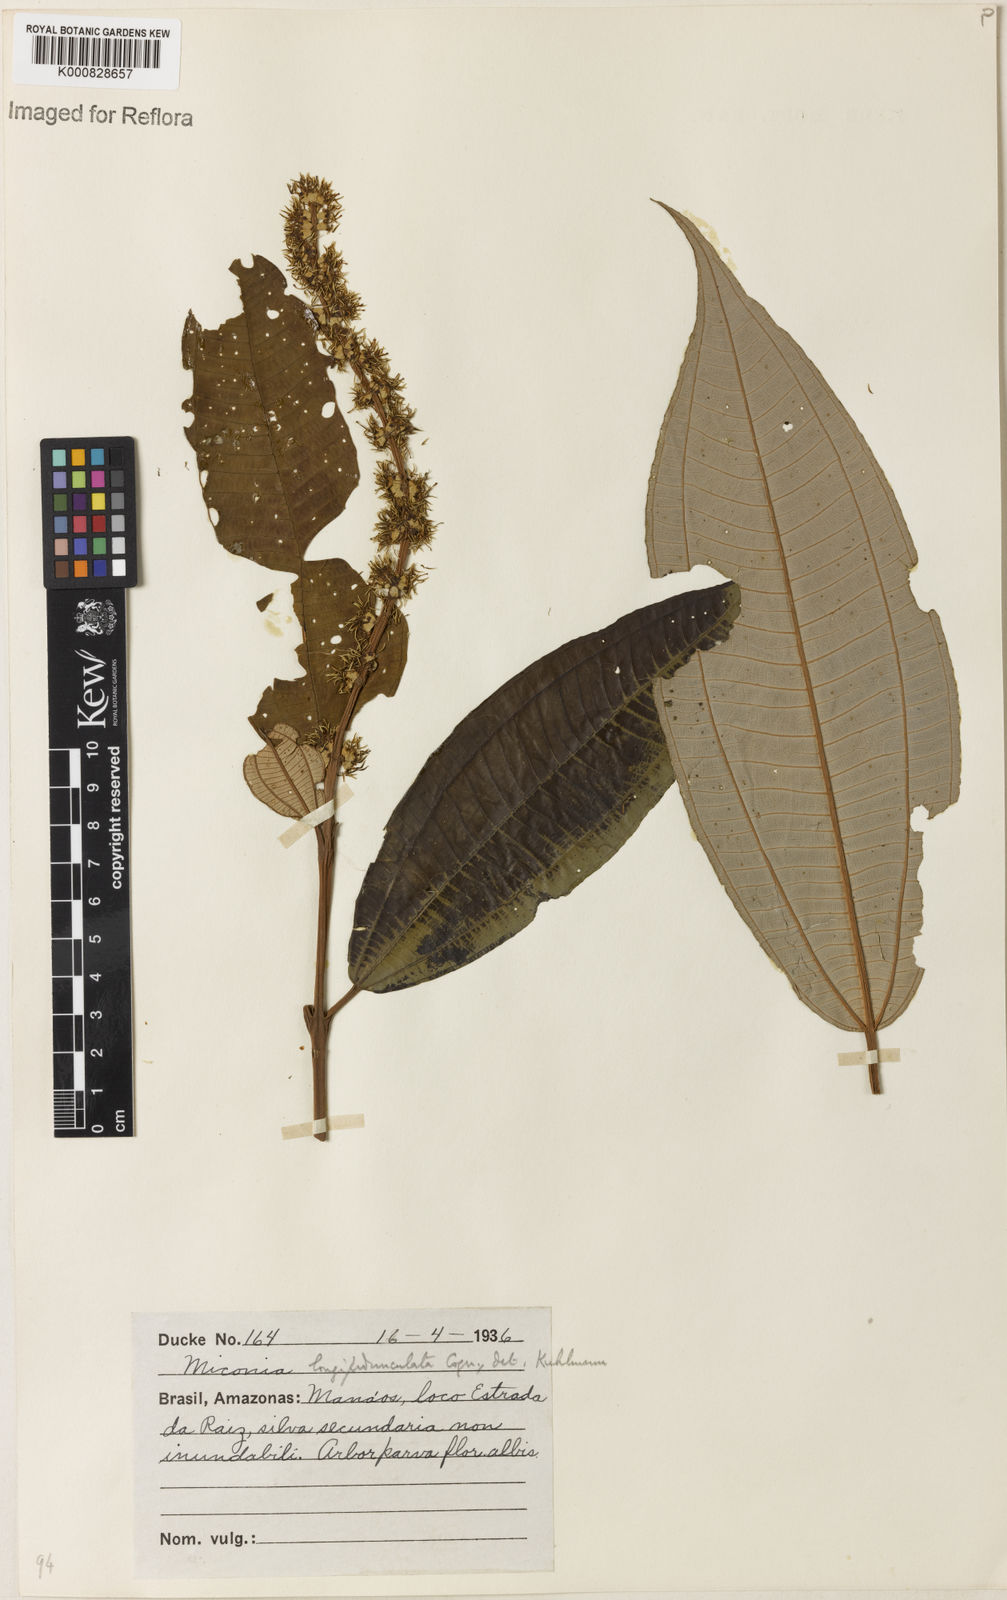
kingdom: Plantae
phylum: Tracheophyta
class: Magnoliopsida
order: Myrtales
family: Melastomataceae
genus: Miconia
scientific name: Miconia longispicata
